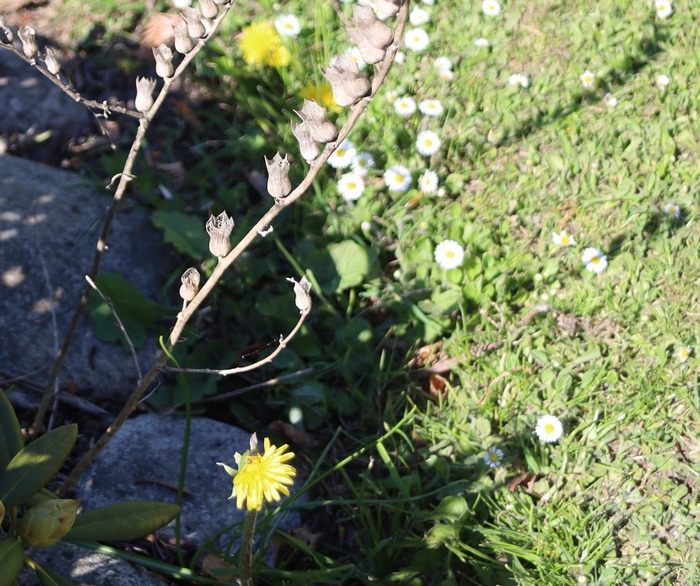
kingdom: Plantae
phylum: Tracheophyta
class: Magnoliopsida
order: Solanales
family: Solanaceae
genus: Hyoscyamus
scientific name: Hyoscyamus niger
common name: Bulmeurt
